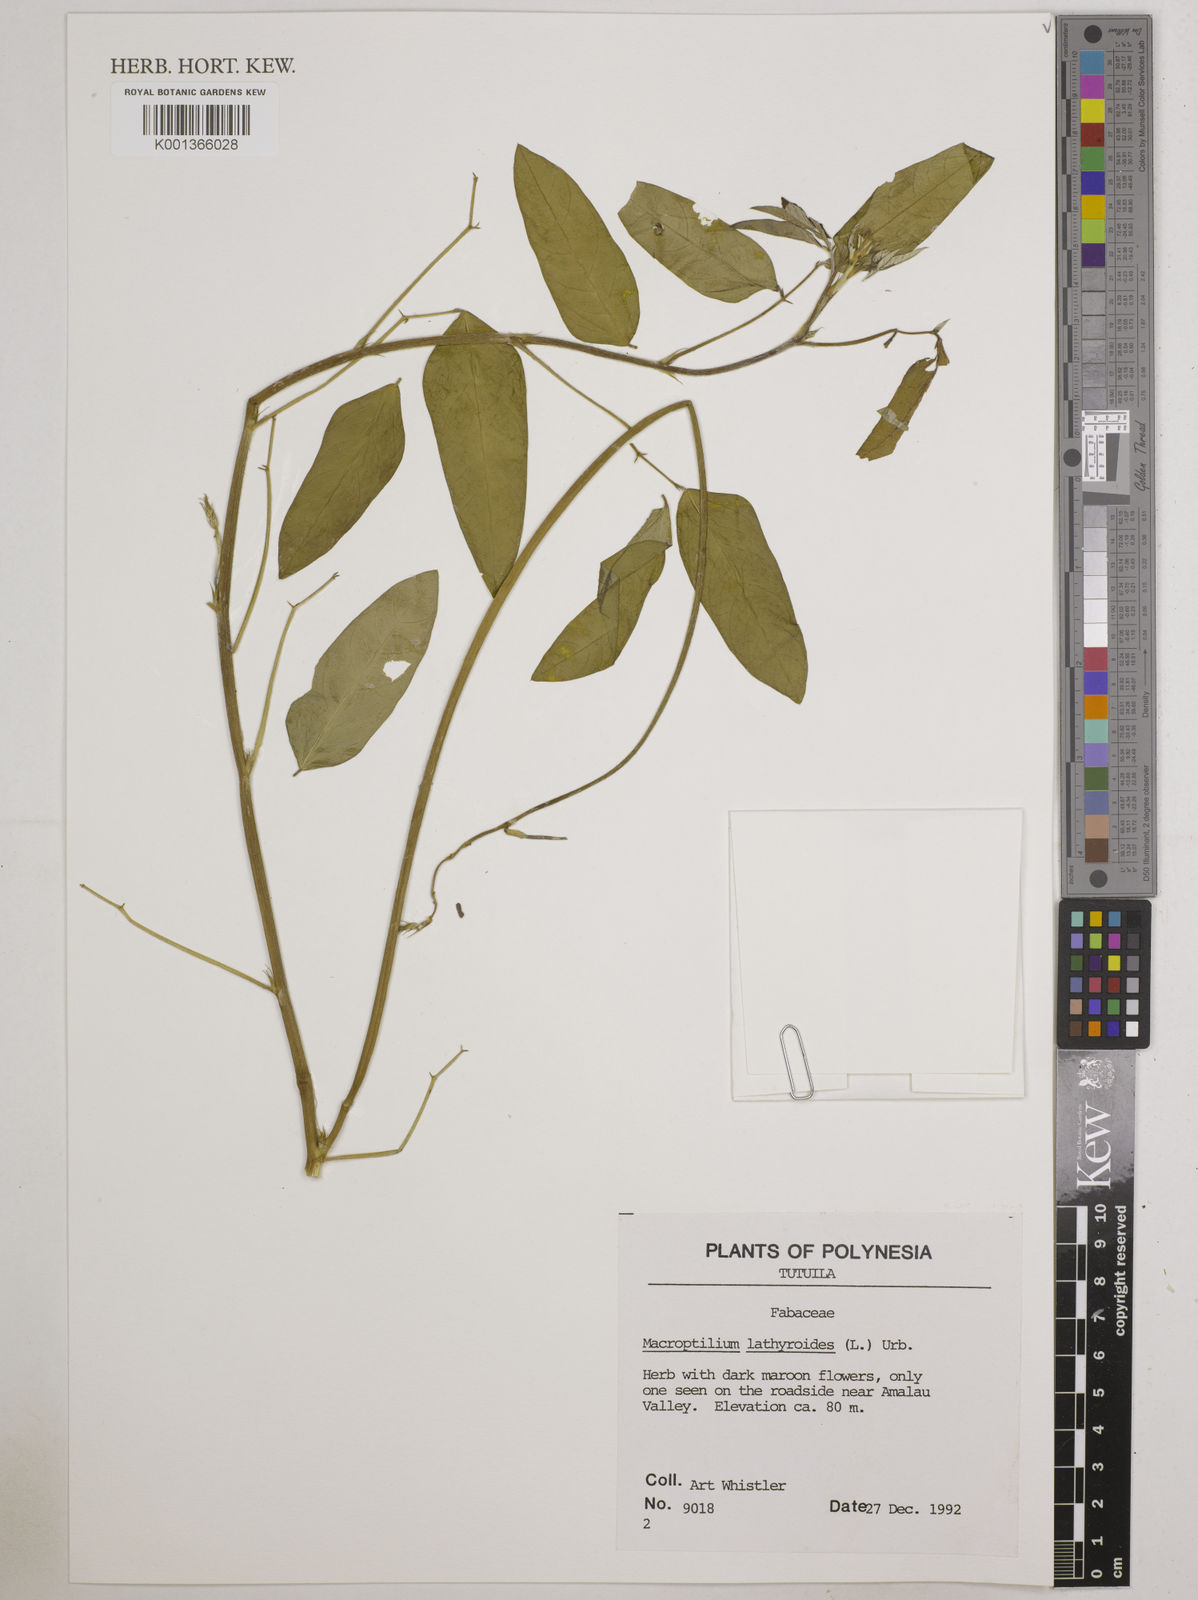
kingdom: Plantae
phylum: Tracheophyta
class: Magnoliopsida
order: Fabales
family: Fabaceae
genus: Macroptilium
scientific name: Macroptilium lathyroides
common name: Wild bushbean
